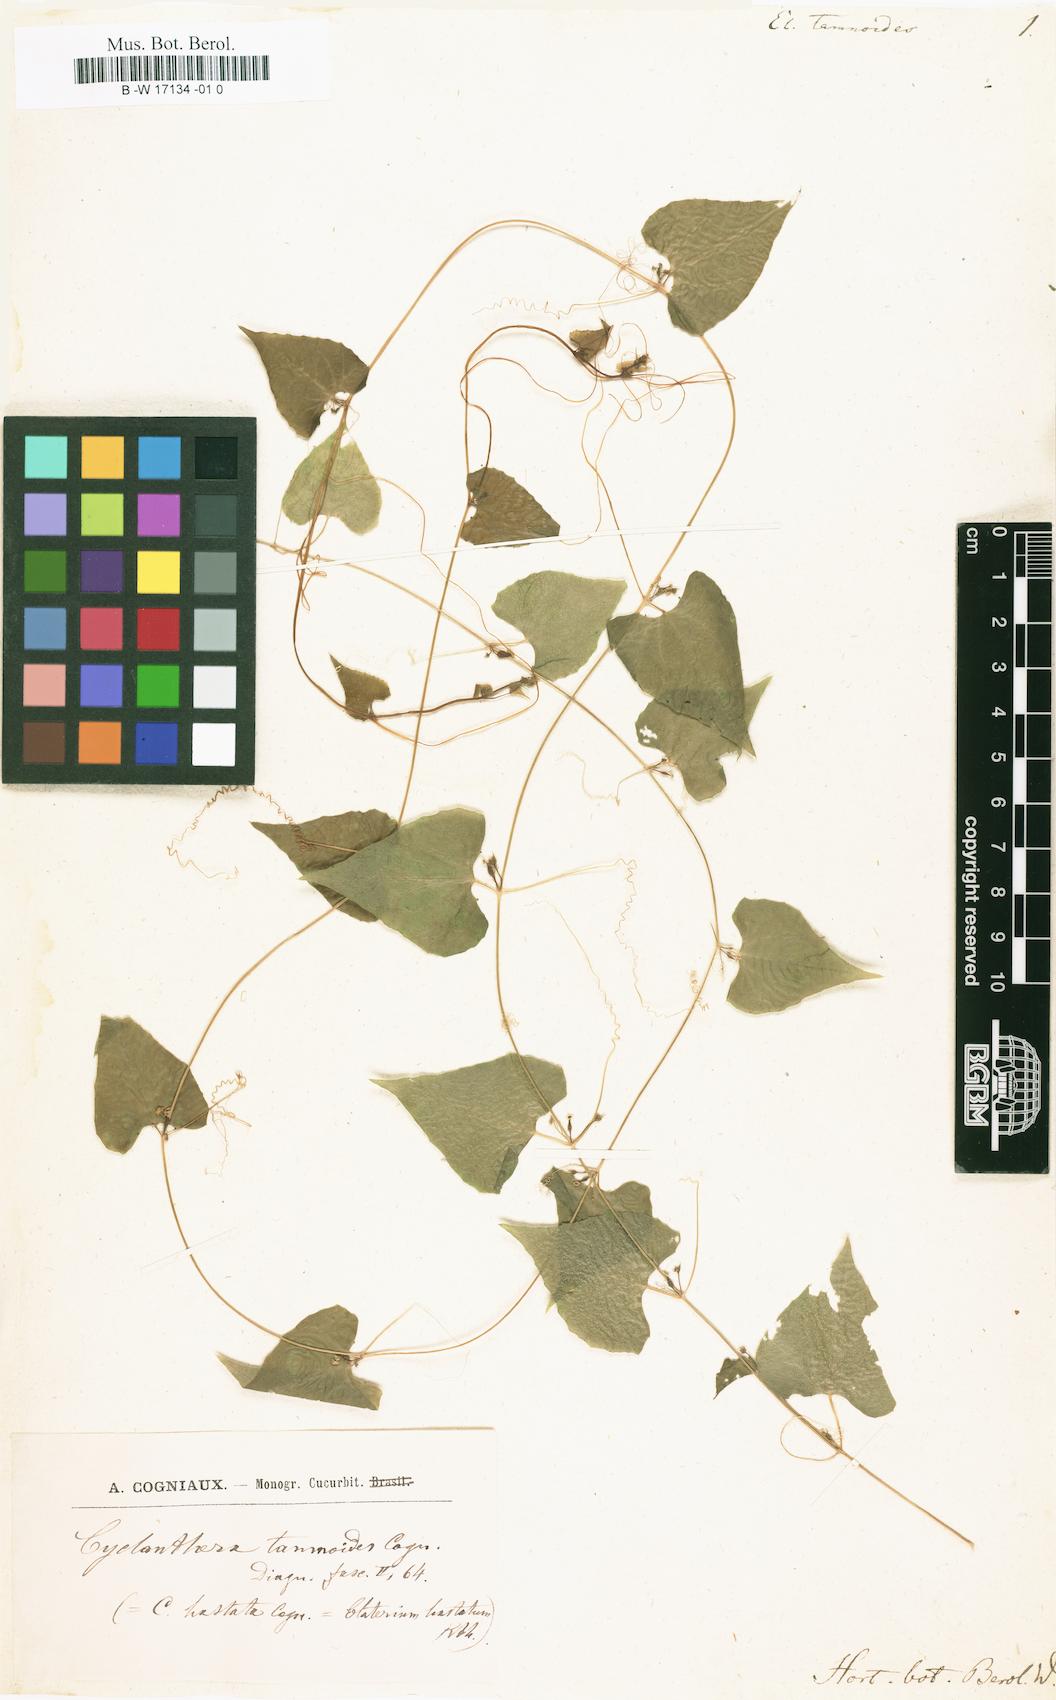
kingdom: Plantae
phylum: Tracheophyta
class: Magnoliopsida
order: Cucurbitales
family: Cucurbitaceae
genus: Cyclanthera
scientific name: Cyclanthera hastata
